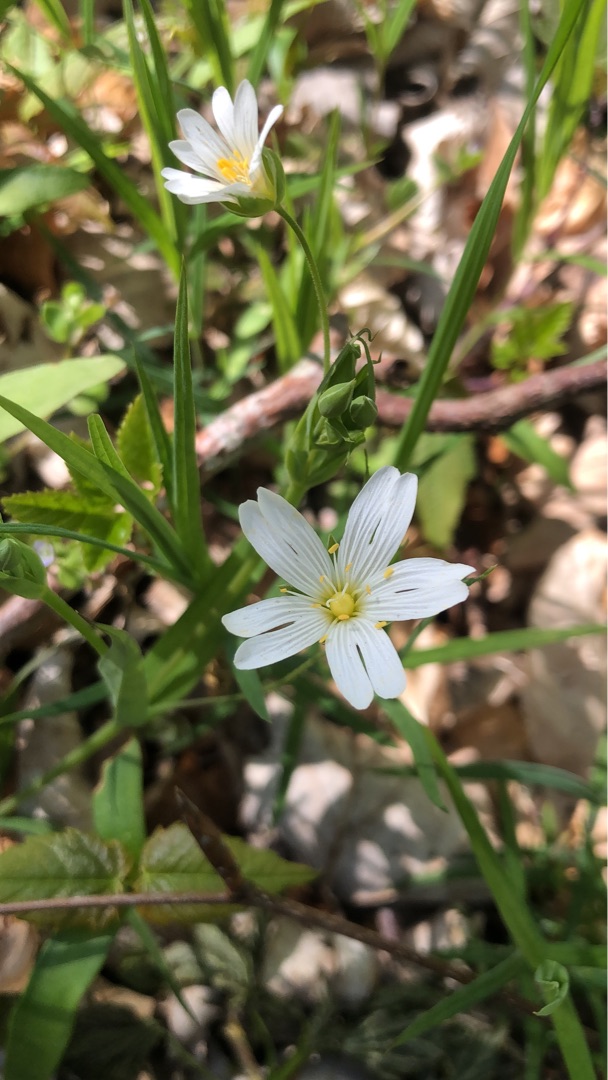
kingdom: Plantae
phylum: Tracheophyta
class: Magnoliopsida
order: Caryophyllales
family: Caryophyllaceae
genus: Rabelera
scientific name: Rabelera holostea
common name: Stor fladstjerne
